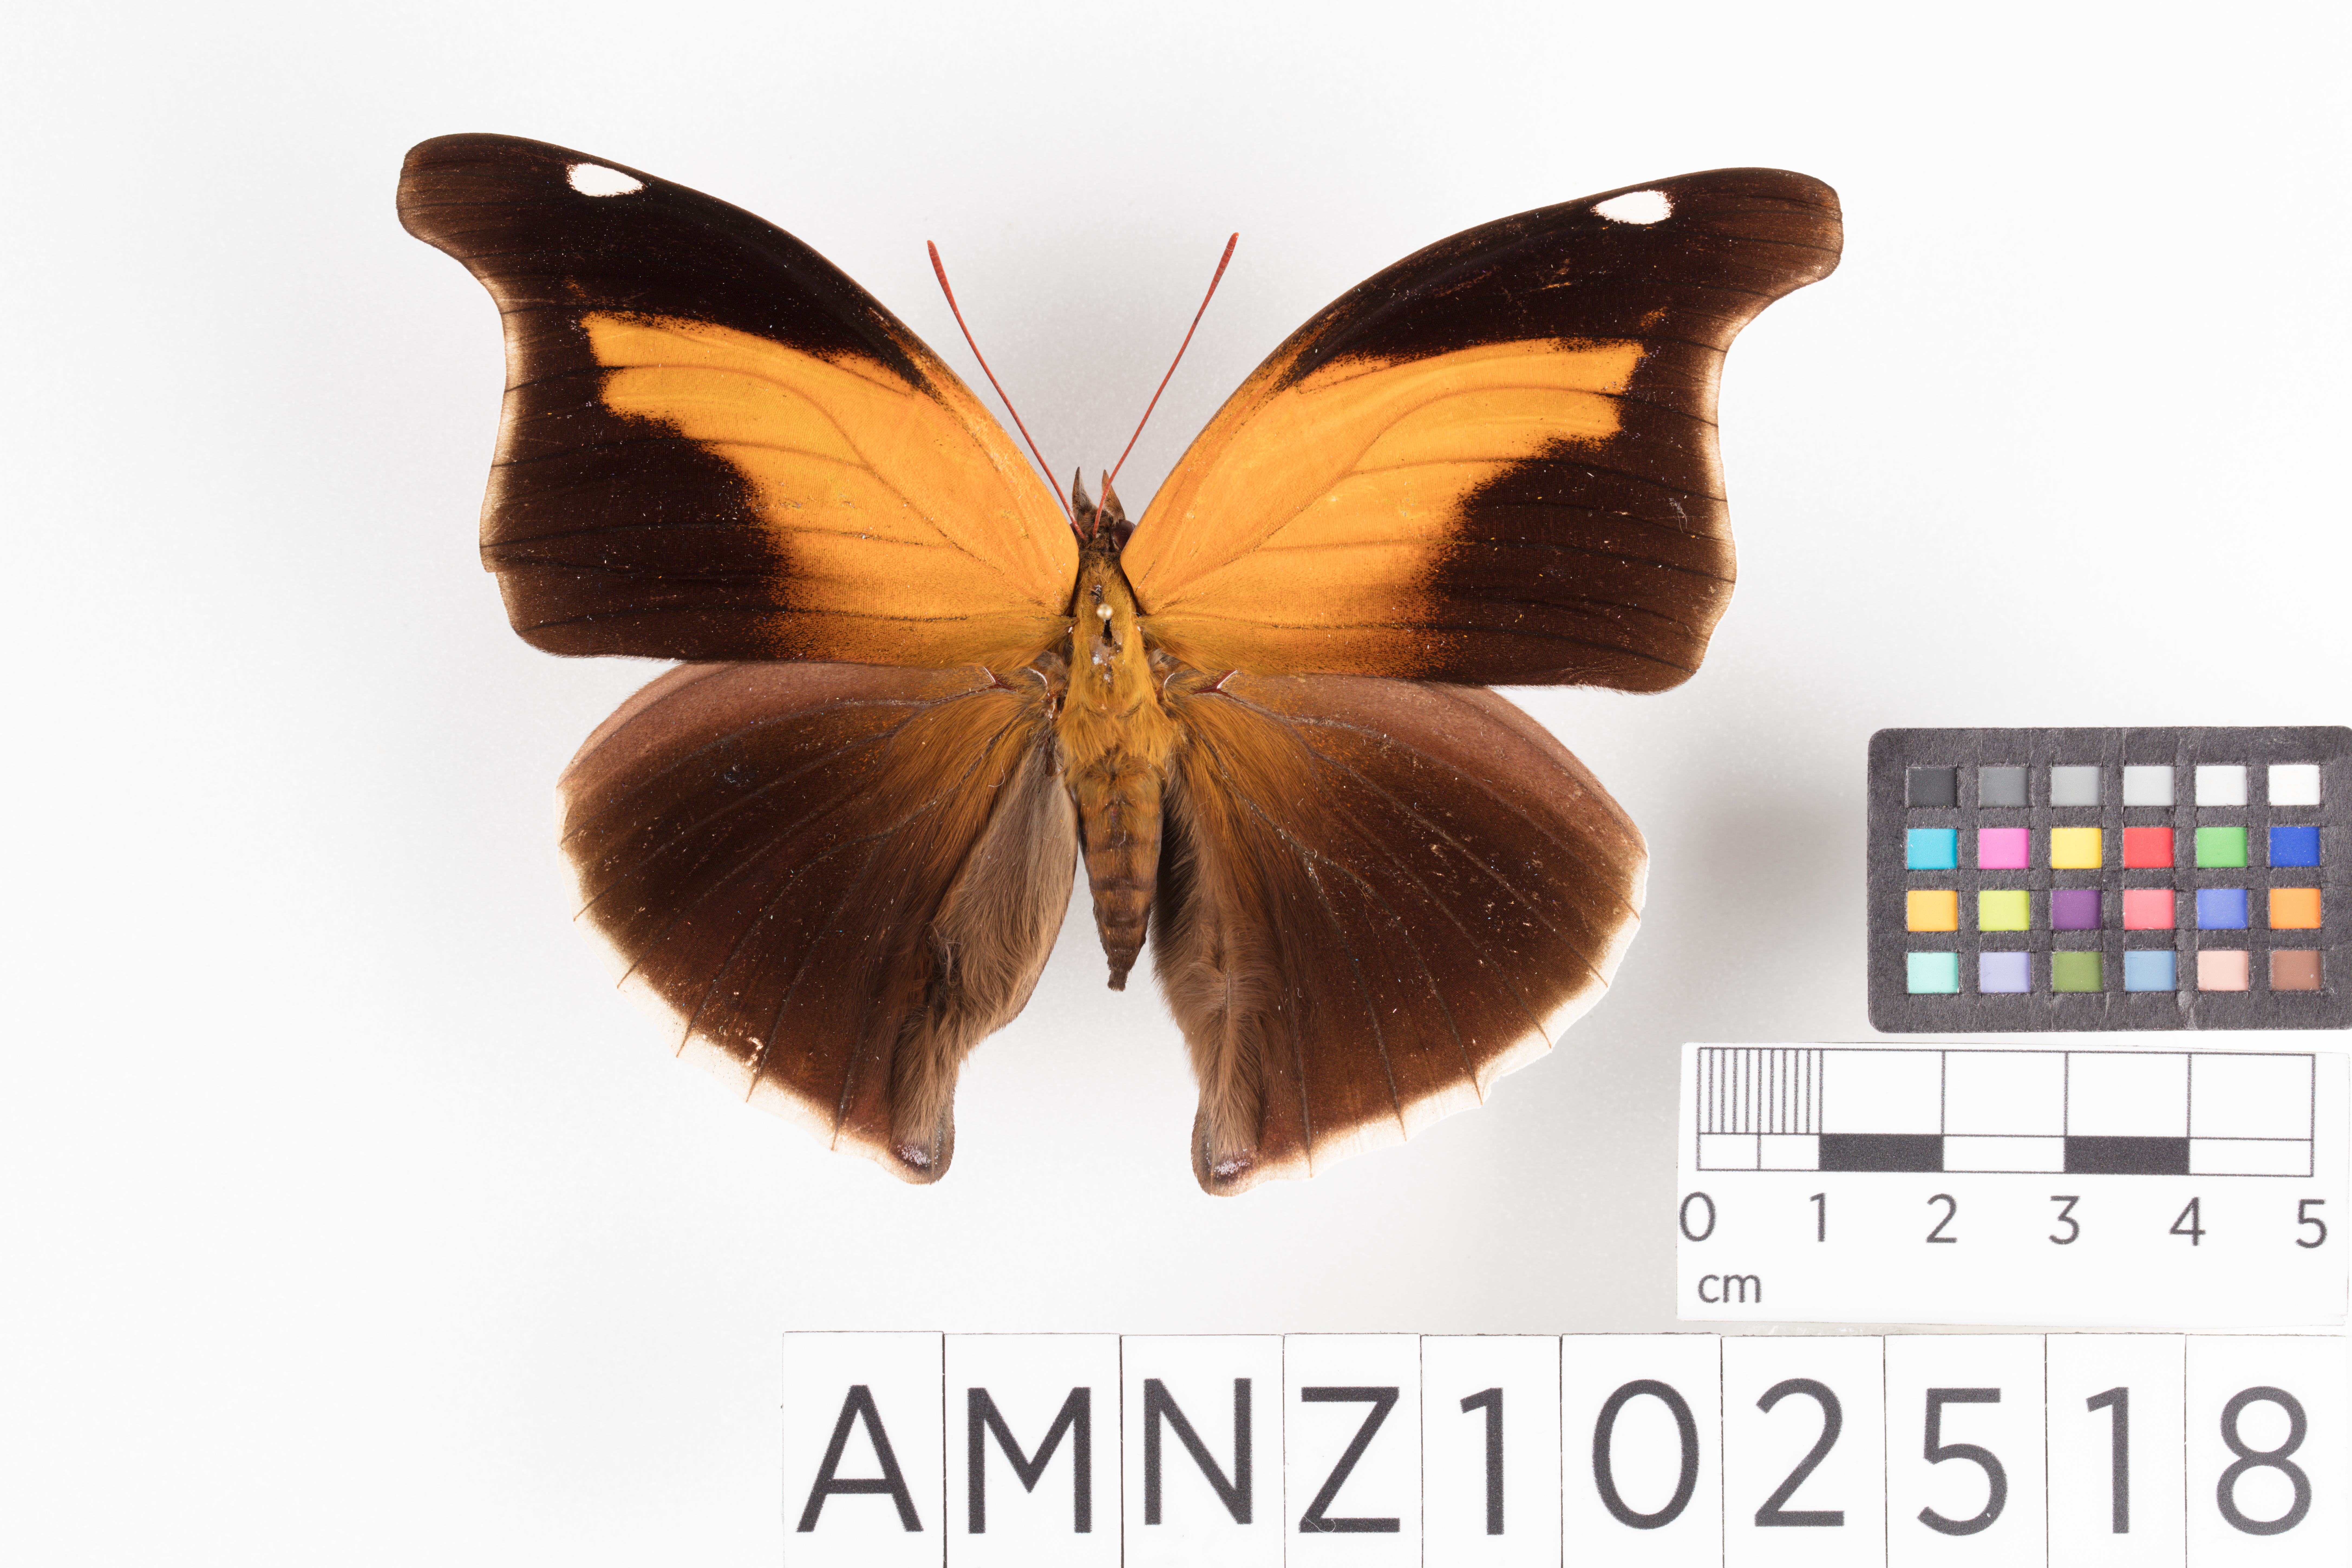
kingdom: Animalia
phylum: Arthropoda
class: Insecta
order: Lepidoptera
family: Nymphalidae
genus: Historis
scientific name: Historis odius
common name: Orion cecropian
